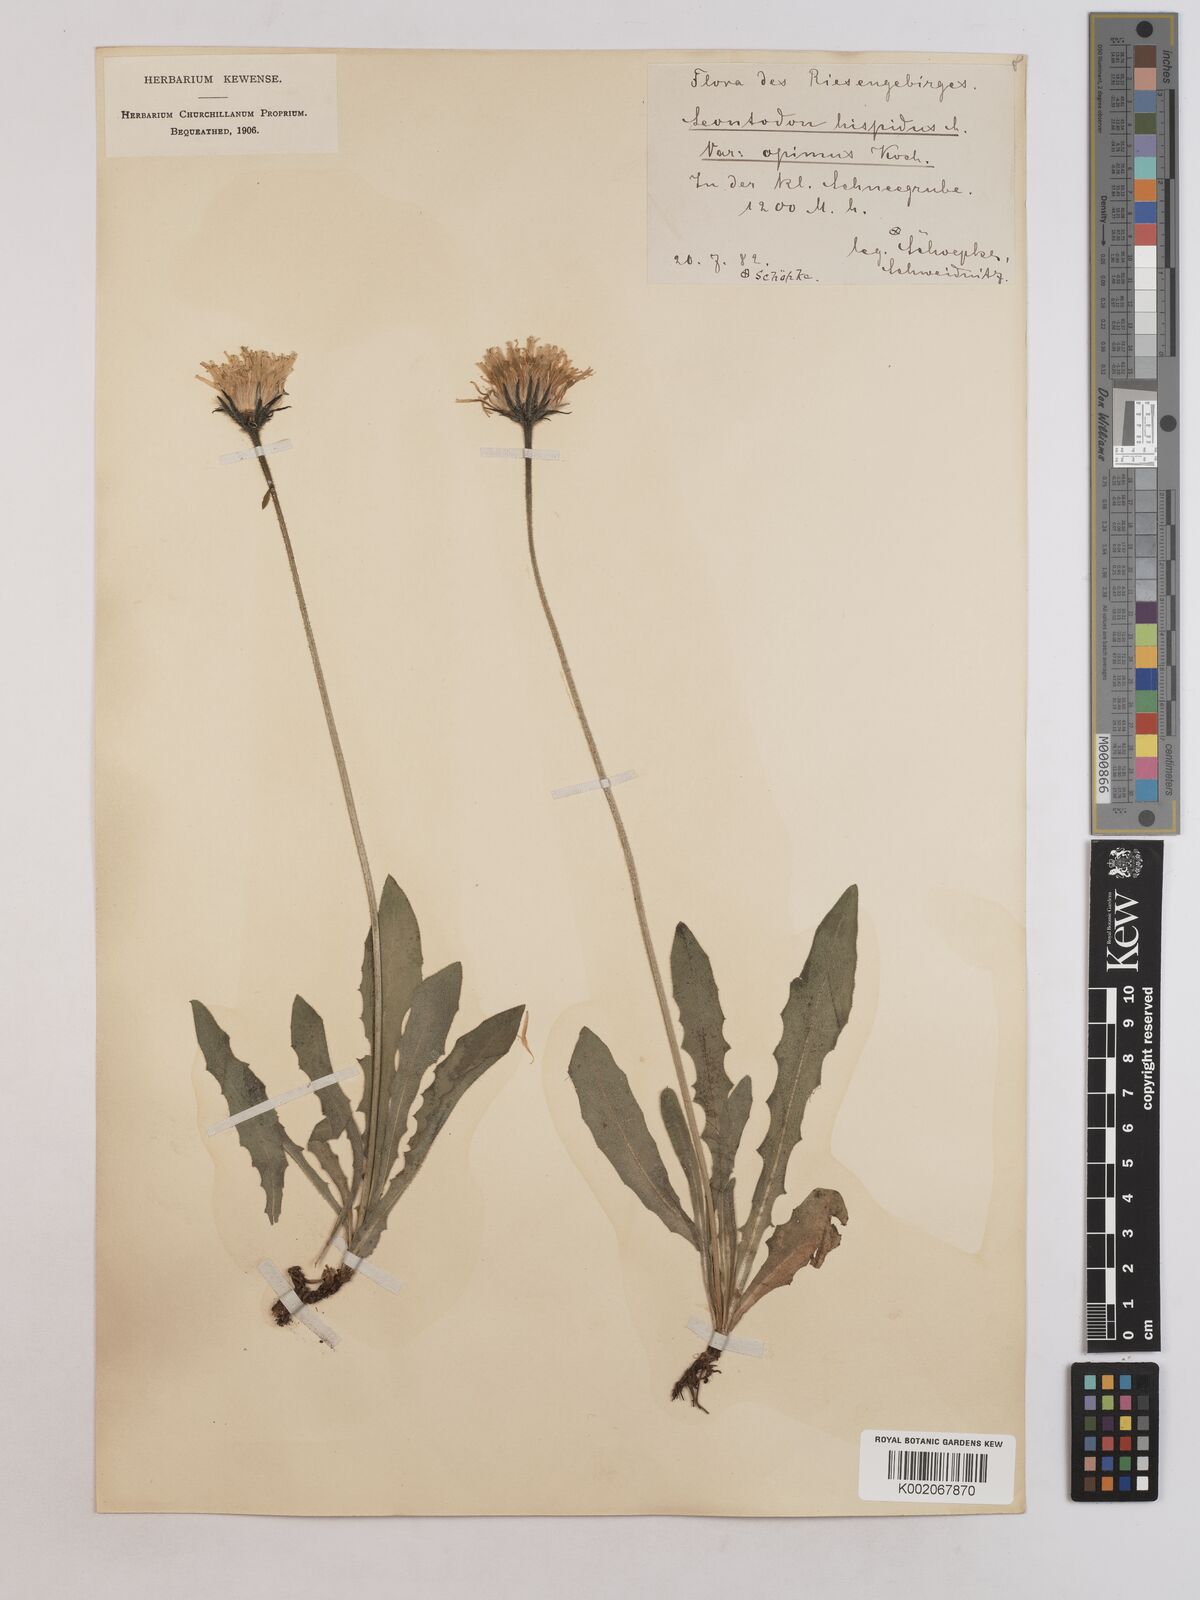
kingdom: Plantae
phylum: Tracheophyta
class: Magnoliopsida
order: Asterales
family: Asteraceae
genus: Leontodon
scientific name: Leontodon hispidus
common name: Rough hawkbit
